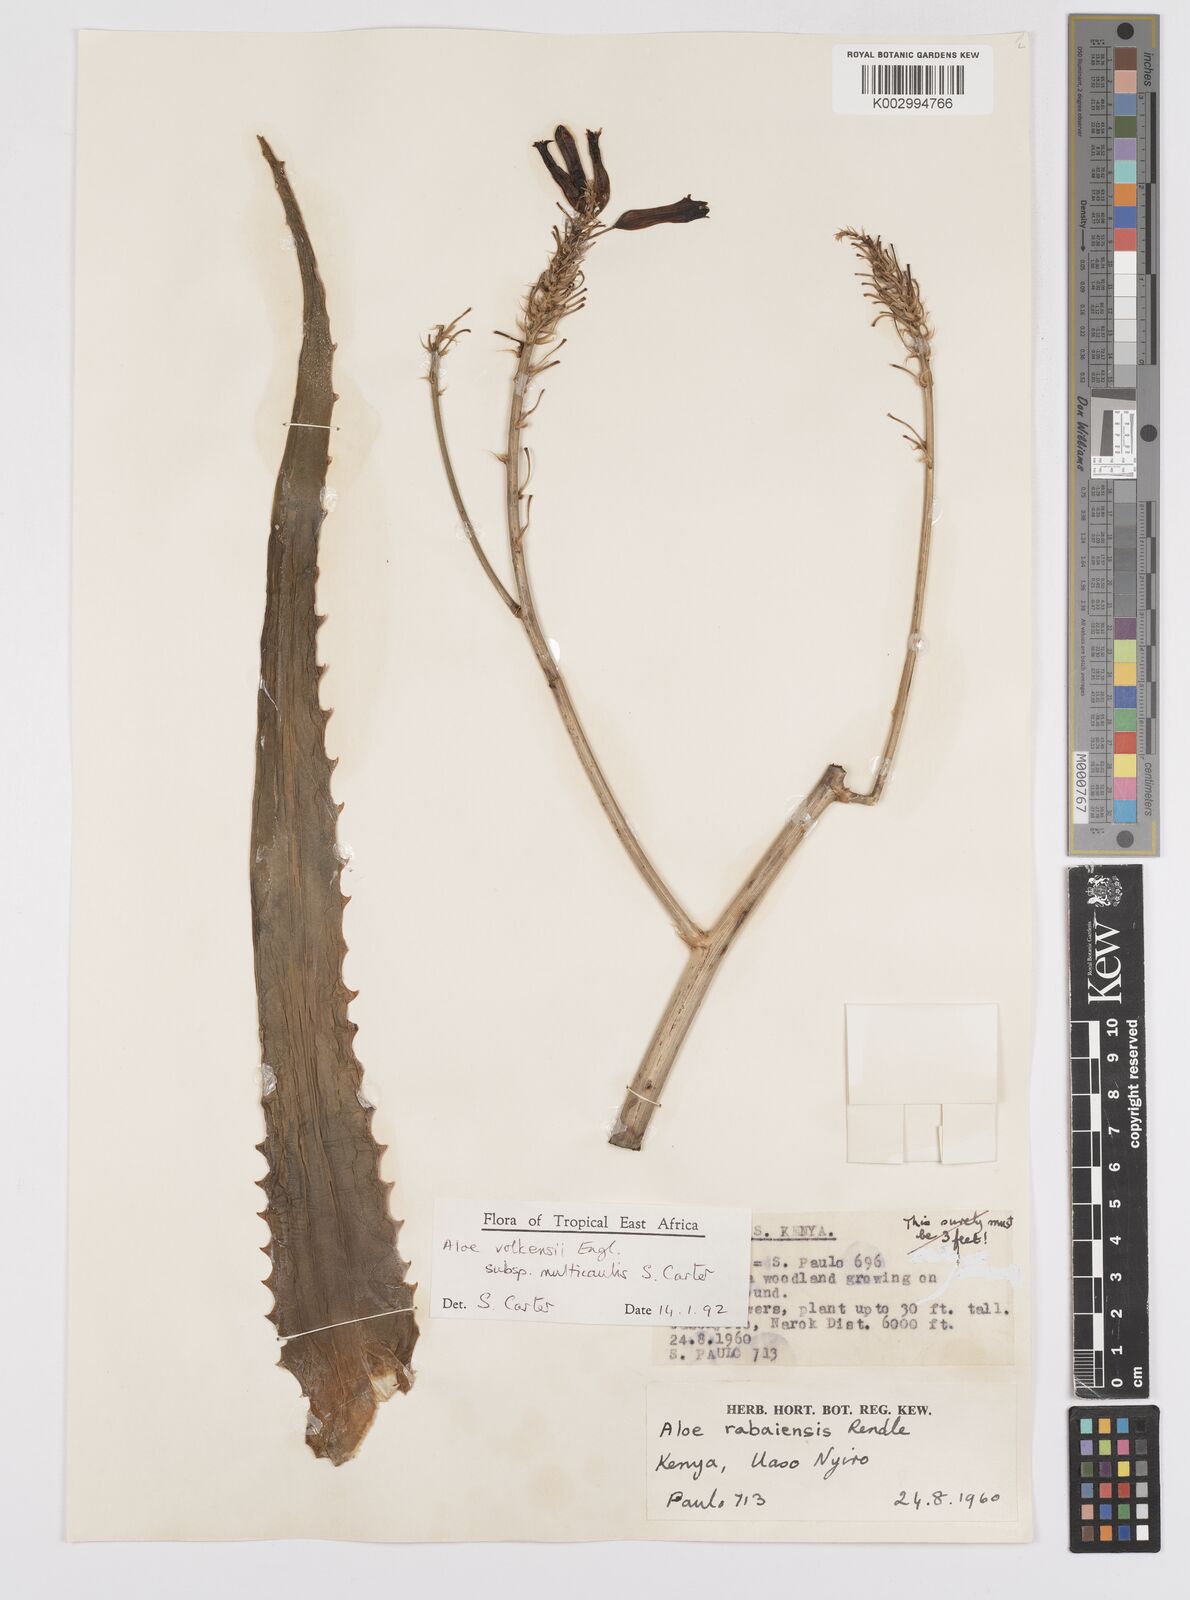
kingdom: Plantae
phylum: Tracheophyta
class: Liliopsida
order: Asparagales
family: Asphodelaceae
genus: Aloe
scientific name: Aloe volkensii
